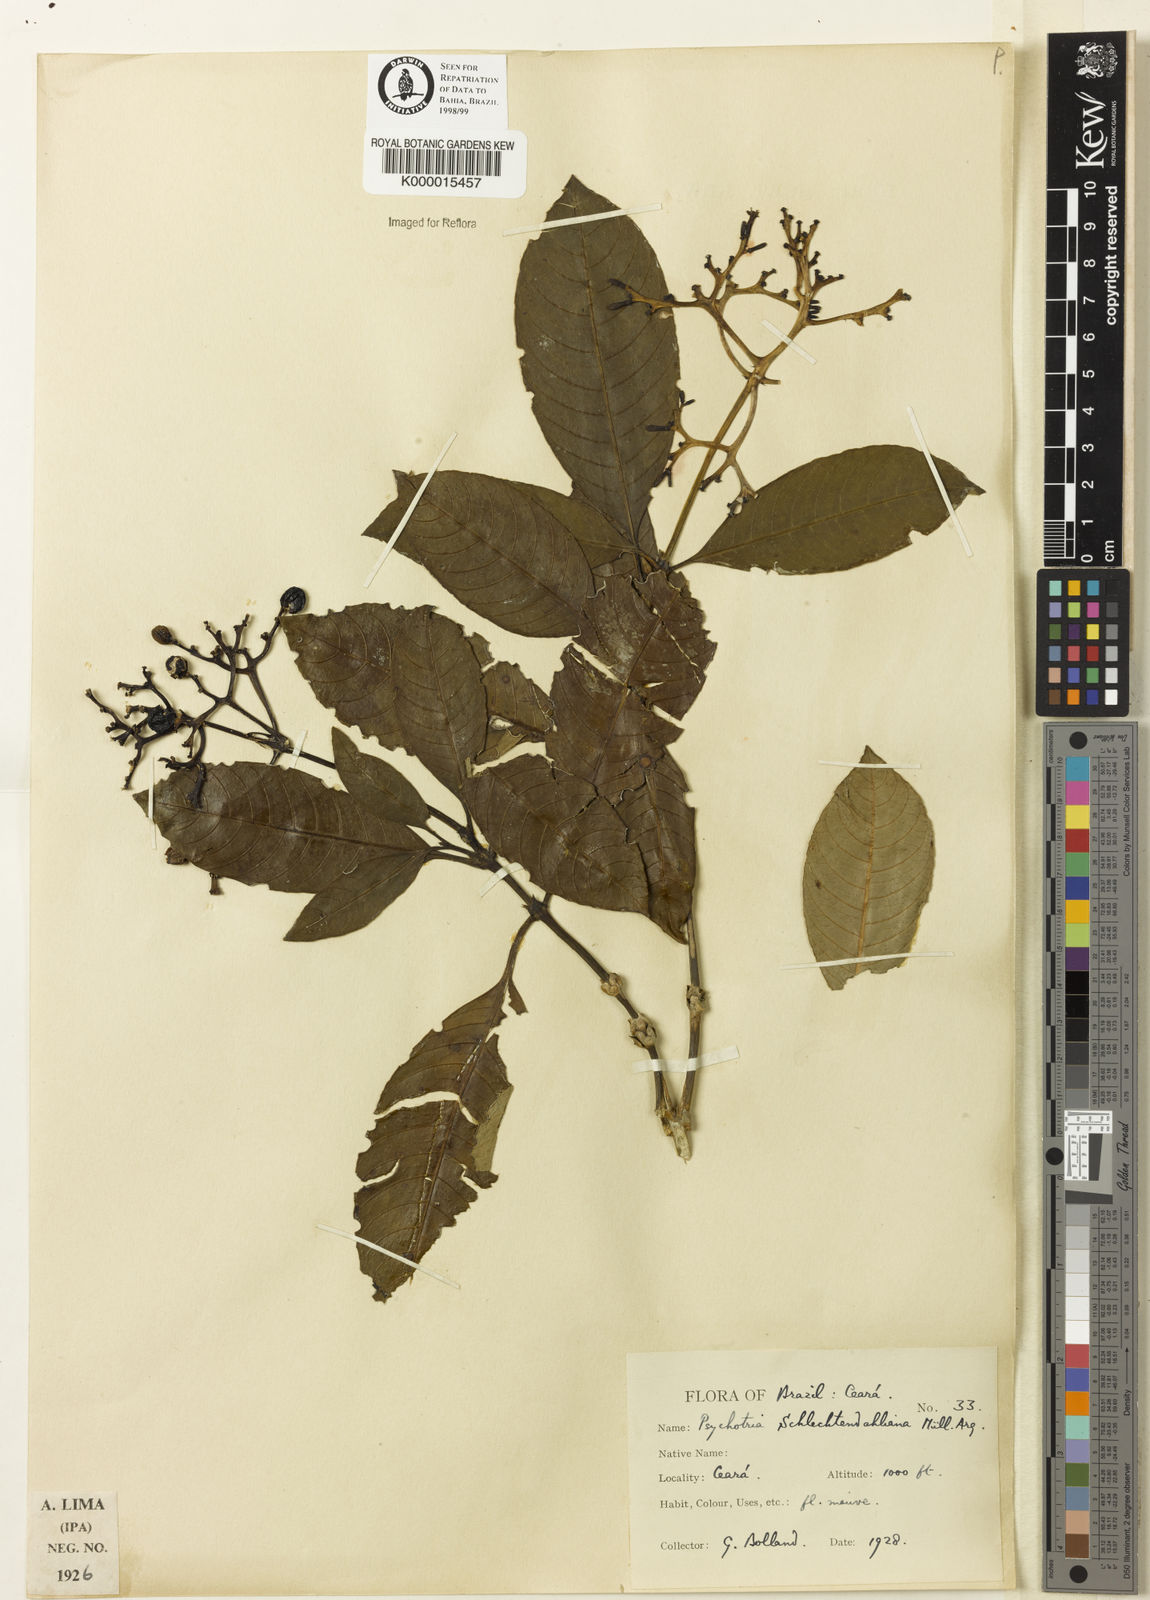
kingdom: Plantae
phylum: Tracheophyta
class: Magnoliopsida
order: Gentianales
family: Rubiaceae
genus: Palicourea
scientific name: Palicourea divaricata
